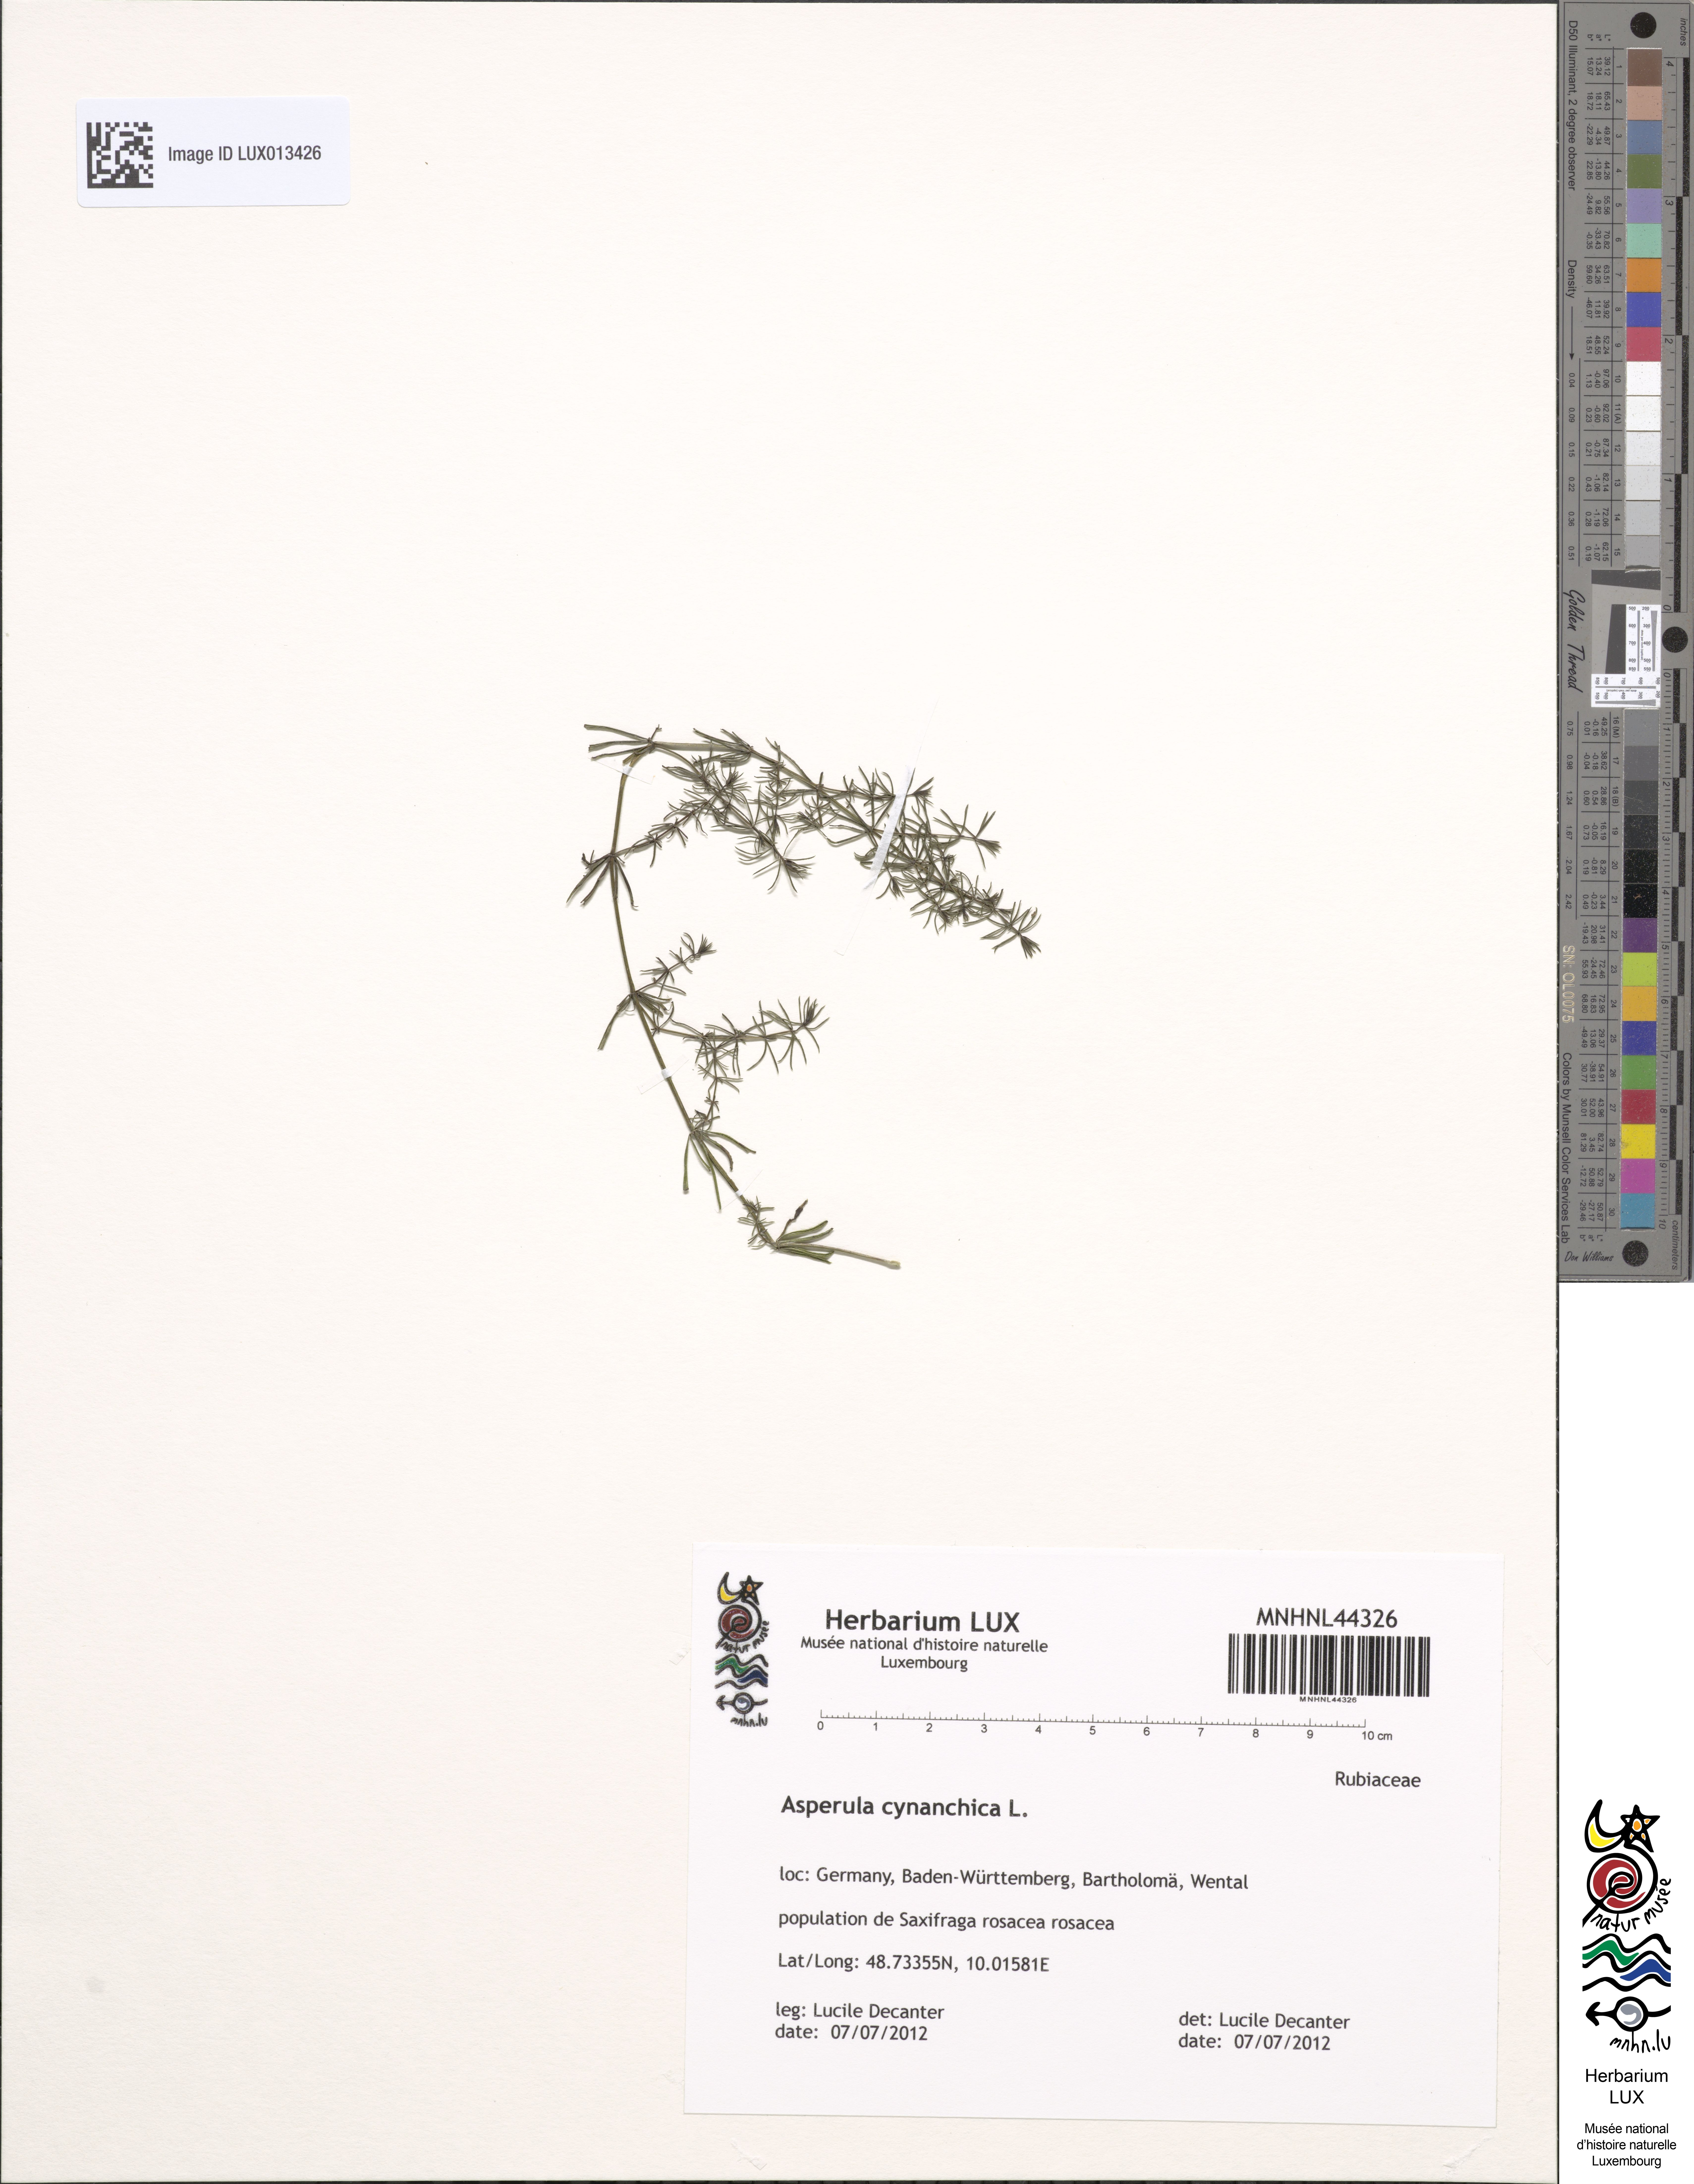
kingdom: Plantae
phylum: Tracheophyta
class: Magnoliopsida
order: Gentianales
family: Rubiaceae
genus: Cynanchica
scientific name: Cynanchica pyrenaica
